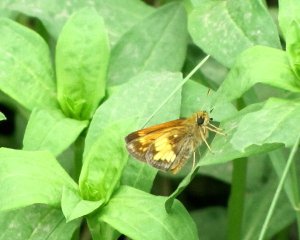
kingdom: Animalia
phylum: Arthropoda
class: Insecta
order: Lepidoptera
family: Hesperiidae
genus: Lon
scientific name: Lon hobomok
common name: Hobomok Skipper
